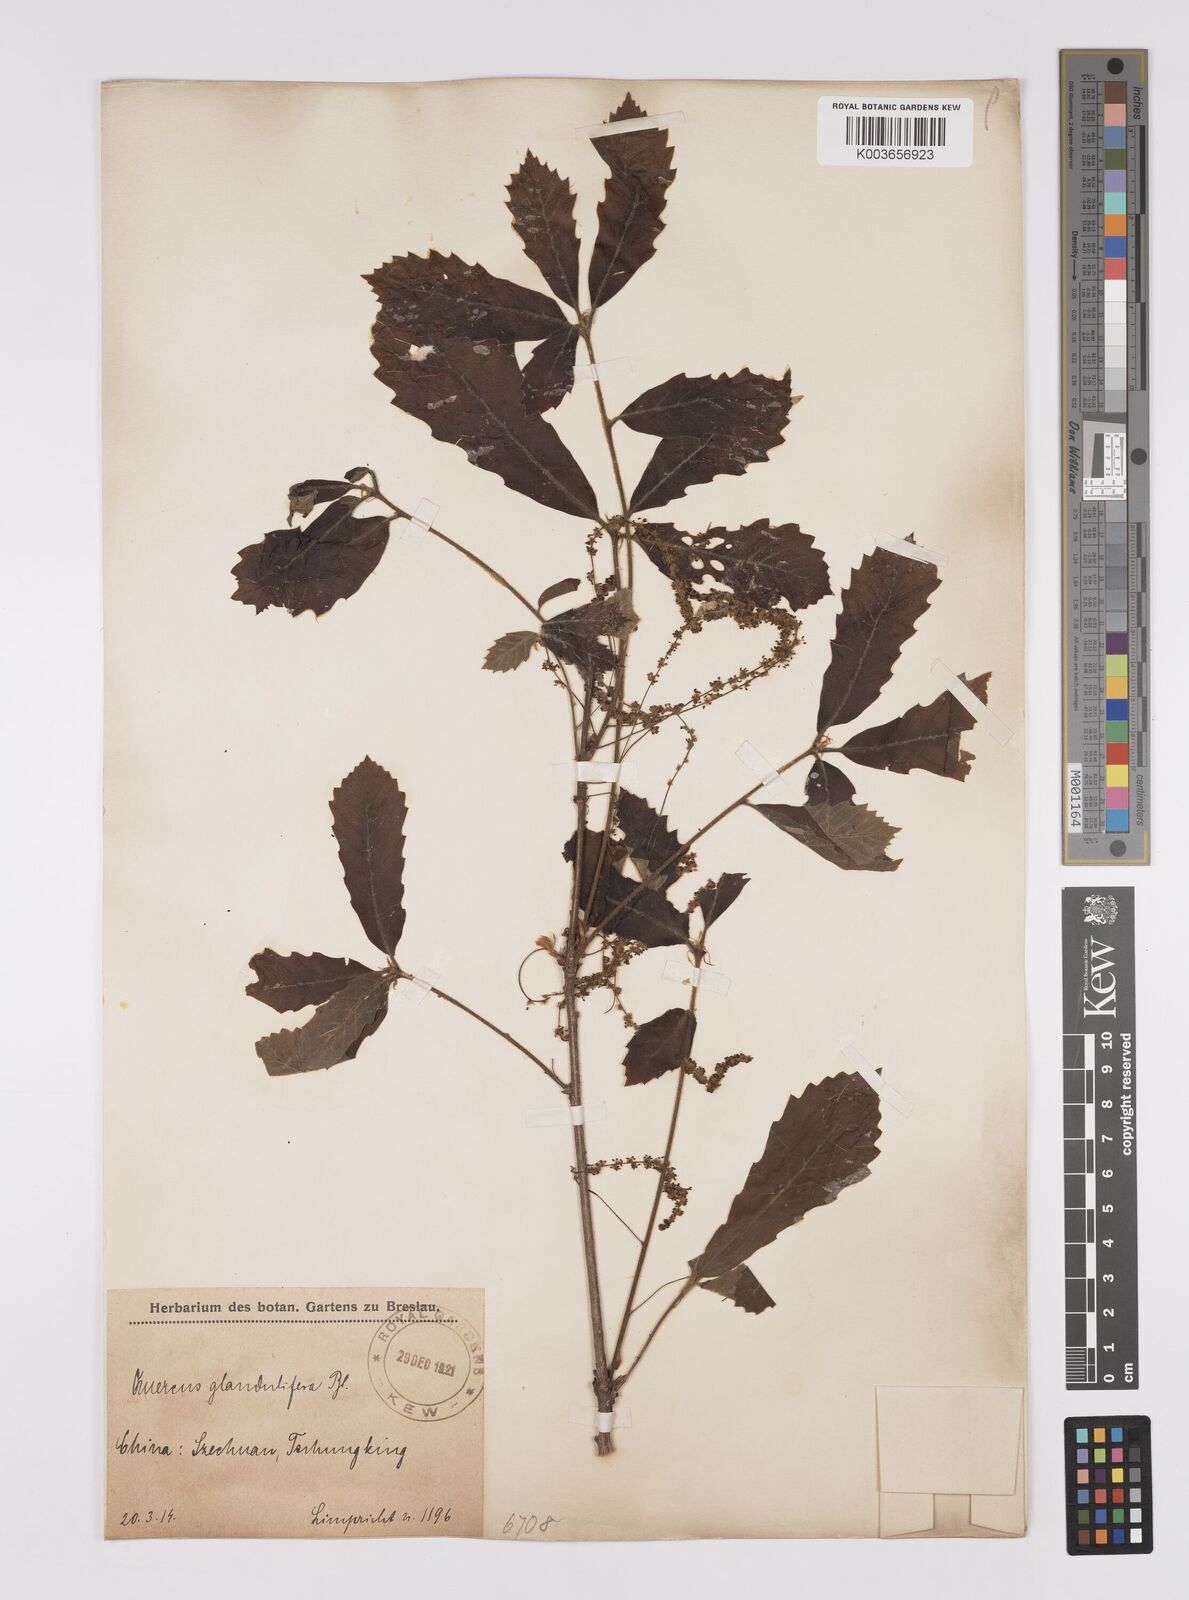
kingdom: Plantae
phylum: Tracheophyta
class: Magnoliopsida
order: Fagales
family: Fagaceae
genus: Quercus
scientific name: Quercus
